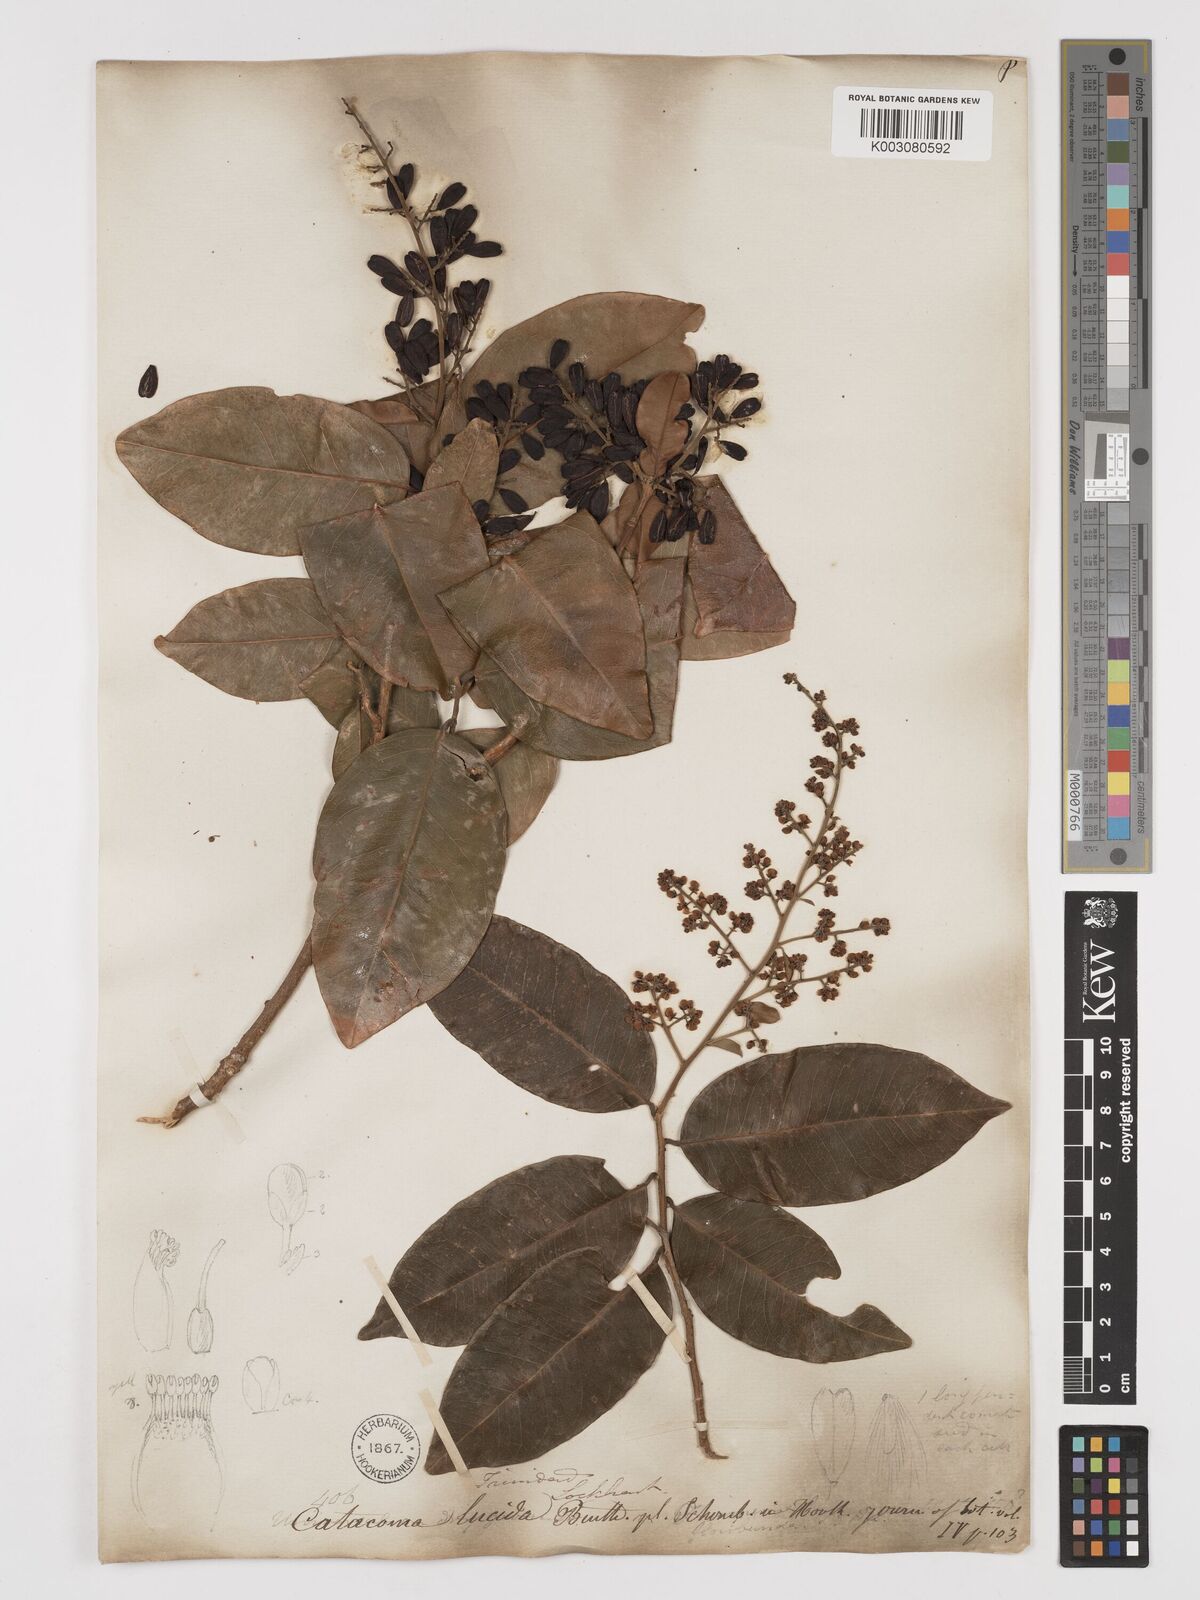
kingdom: Plantae
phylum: Tracheophyta
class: Magnoliopsida
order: Fabales
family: Polygalaceae
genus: Bredemeyera
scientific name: Bredemeyera lucida
